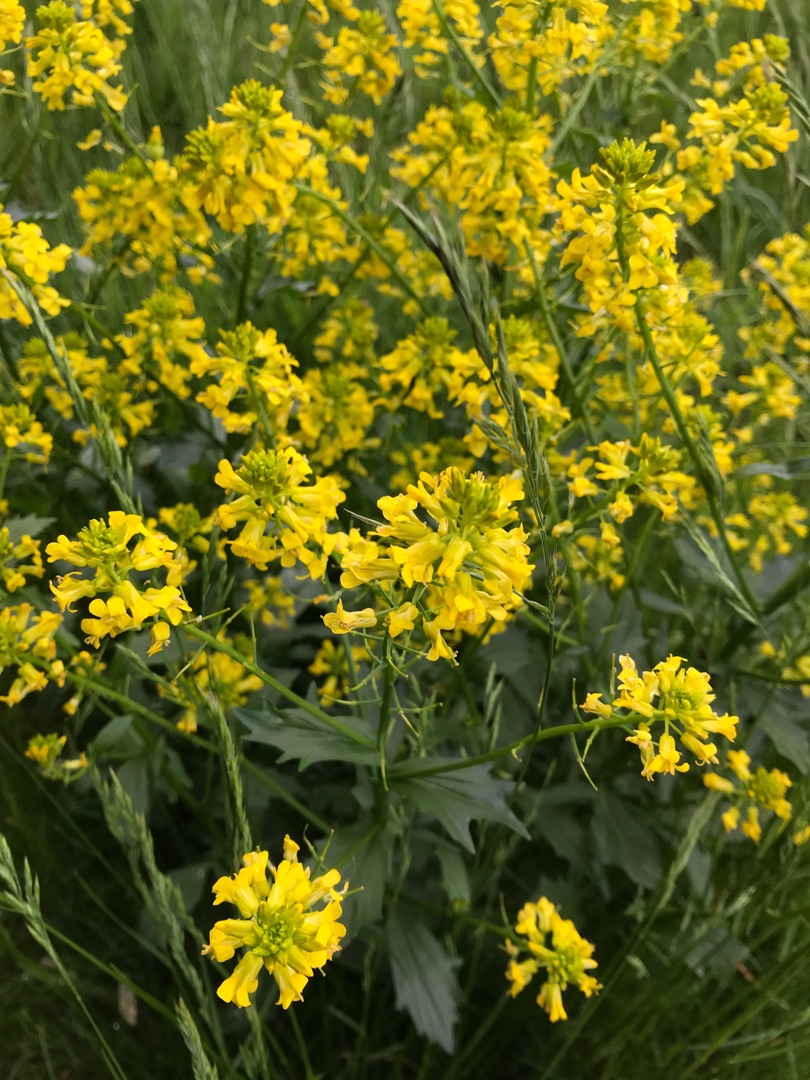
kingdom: Plantae
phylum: Tracheophyta
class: Magnoliopsida
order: Brassicales
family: Brassicaceae
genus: Barbarea
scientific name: Barbarea vulgaris
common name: Udspærret vinterkarse
